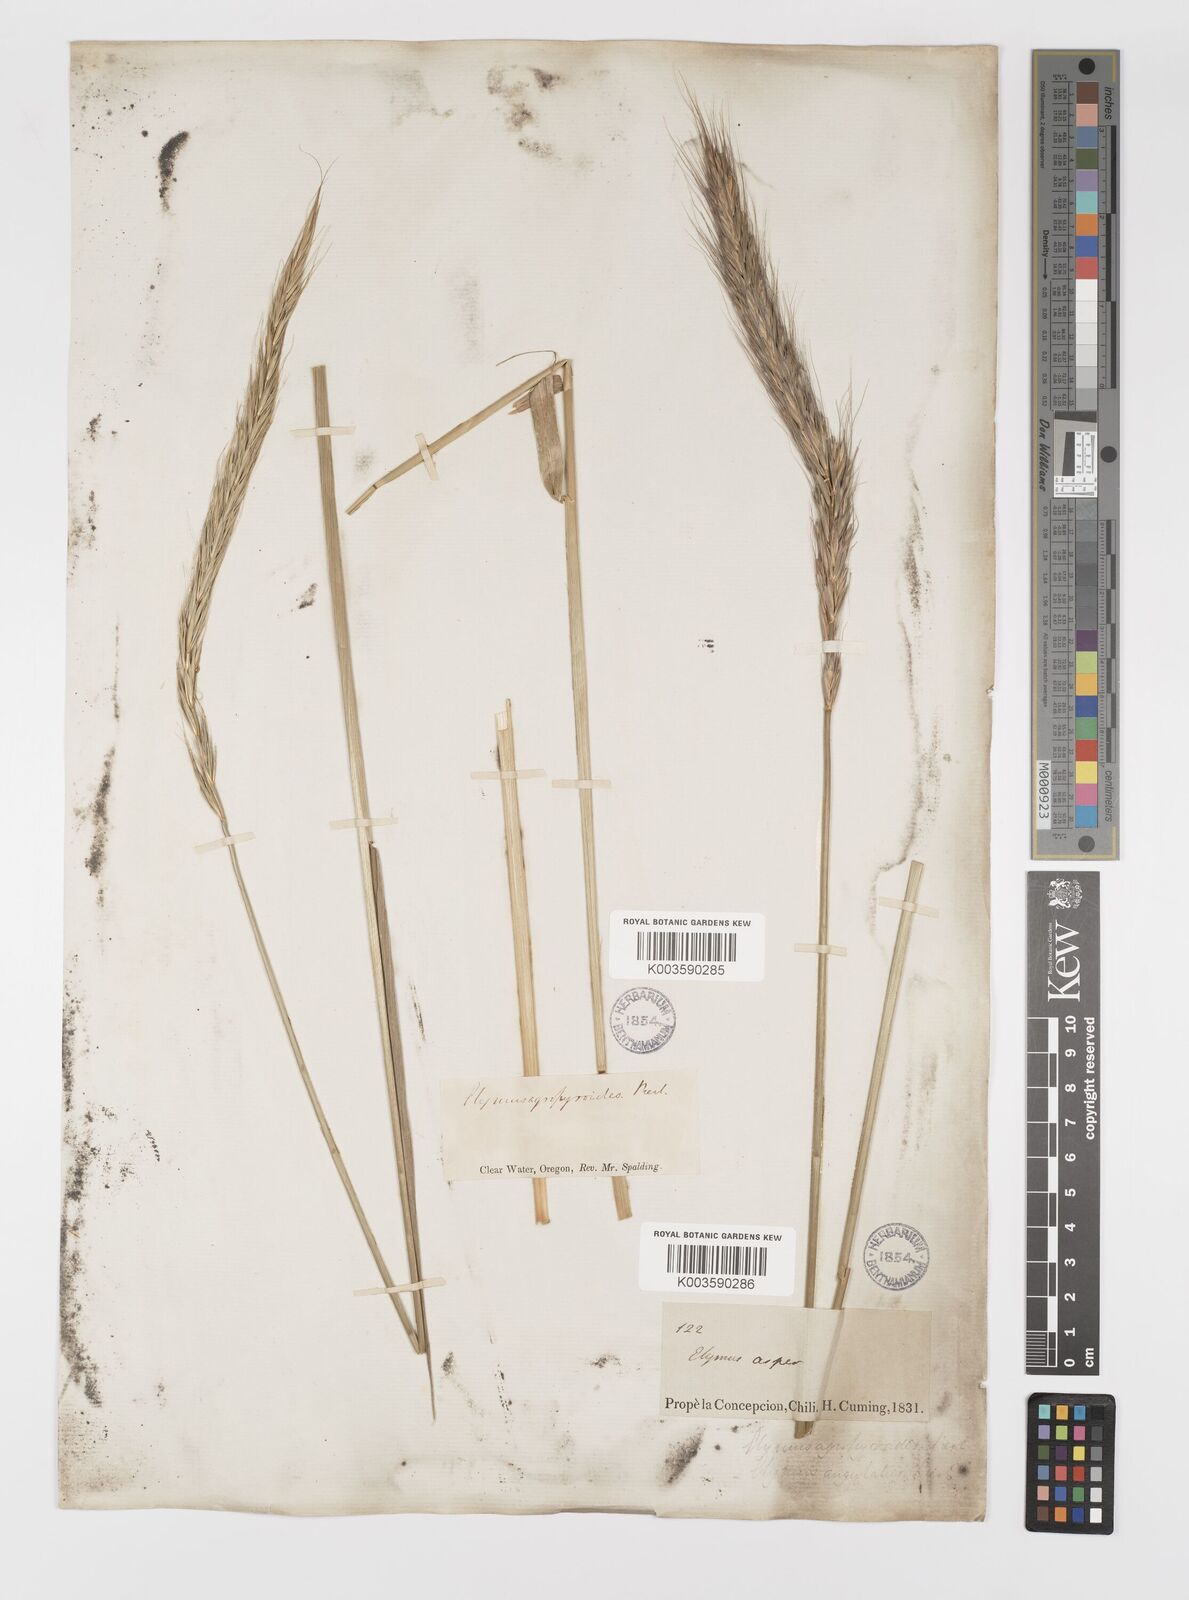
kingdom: Plantae
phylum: Tracheophyta
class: Liliopsida
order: Poales
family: Poaceae
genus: Elymus
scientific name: Elymus
